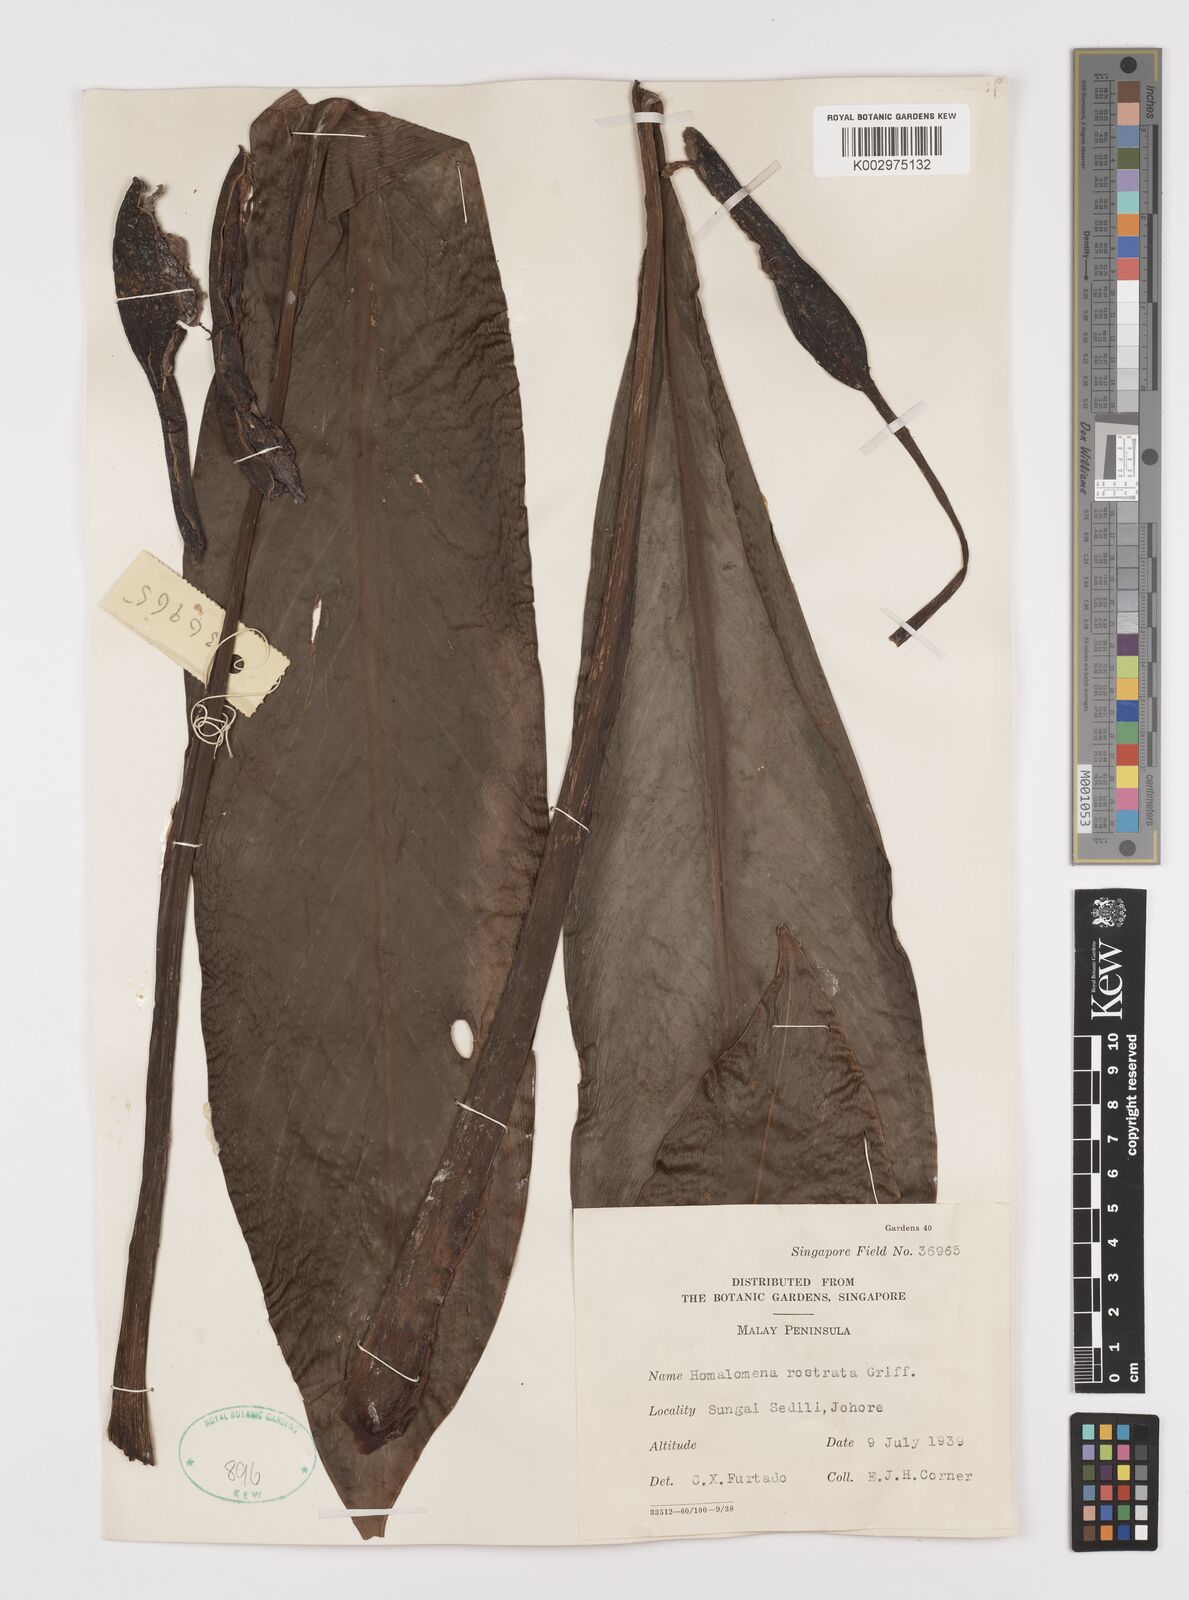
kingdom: Plantae
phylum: Tracheophyta
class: Liliopsida
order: Alismatales
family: Araceae
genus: Homalomena
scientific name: Homalomena rostrata
